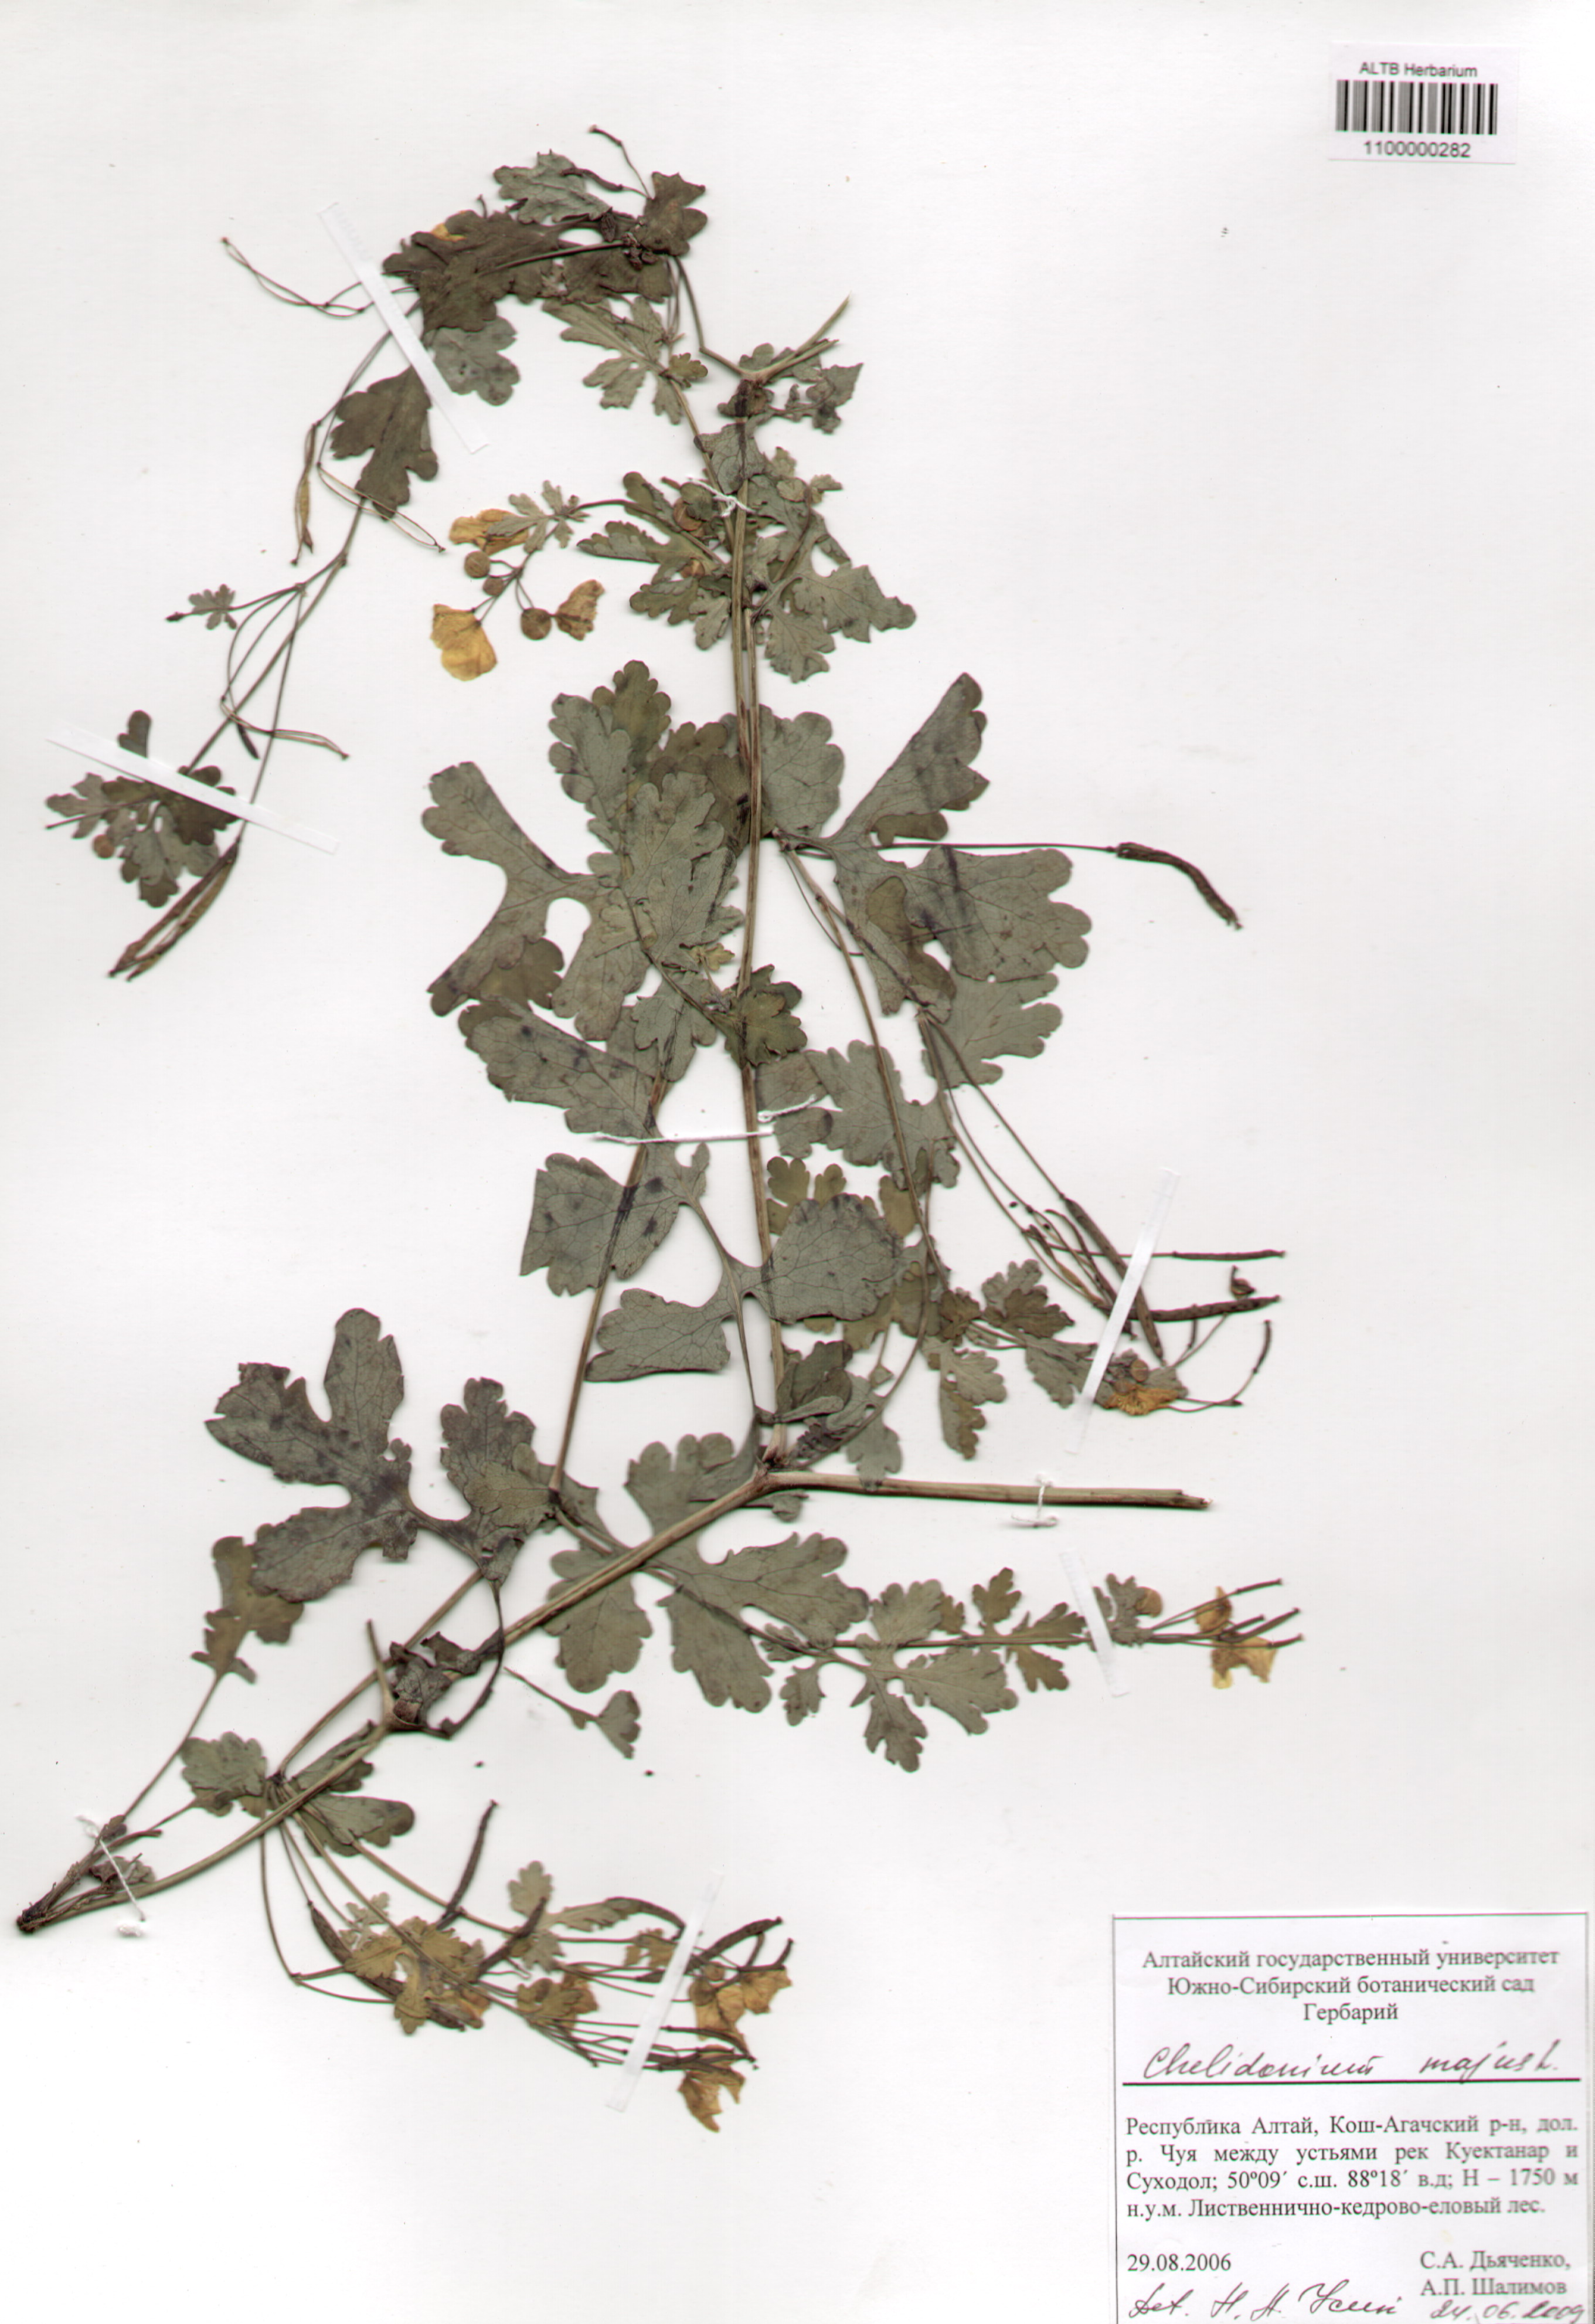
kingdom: Plantae
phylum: Tracheophyta
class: Magnoliopsida
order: Ranunculales
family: Papaveraceae
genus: Chelidonium
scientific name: Chelidonium majus
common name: Greater celandine
